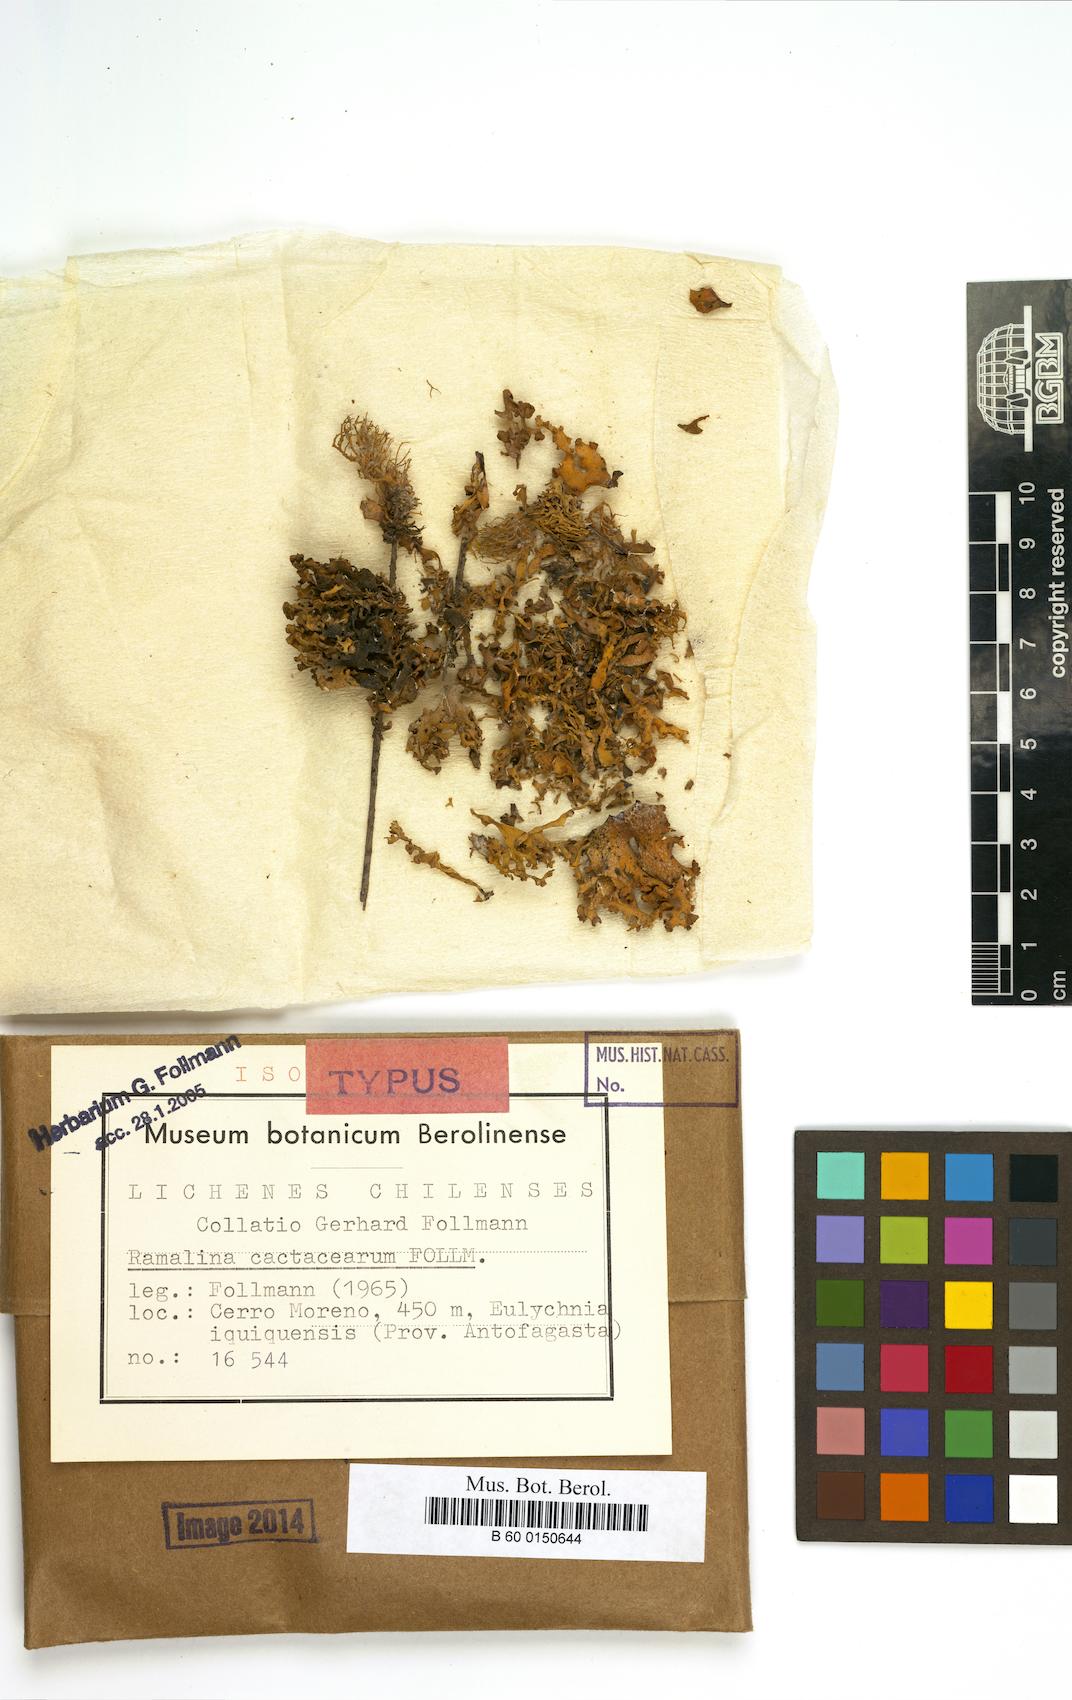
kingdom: Fungi
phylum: Ascomycota
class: Lecanoromycetes
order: Lecanorales
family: Ramalinaceae
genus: Ramalina
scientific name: Ramalina cactacearum
